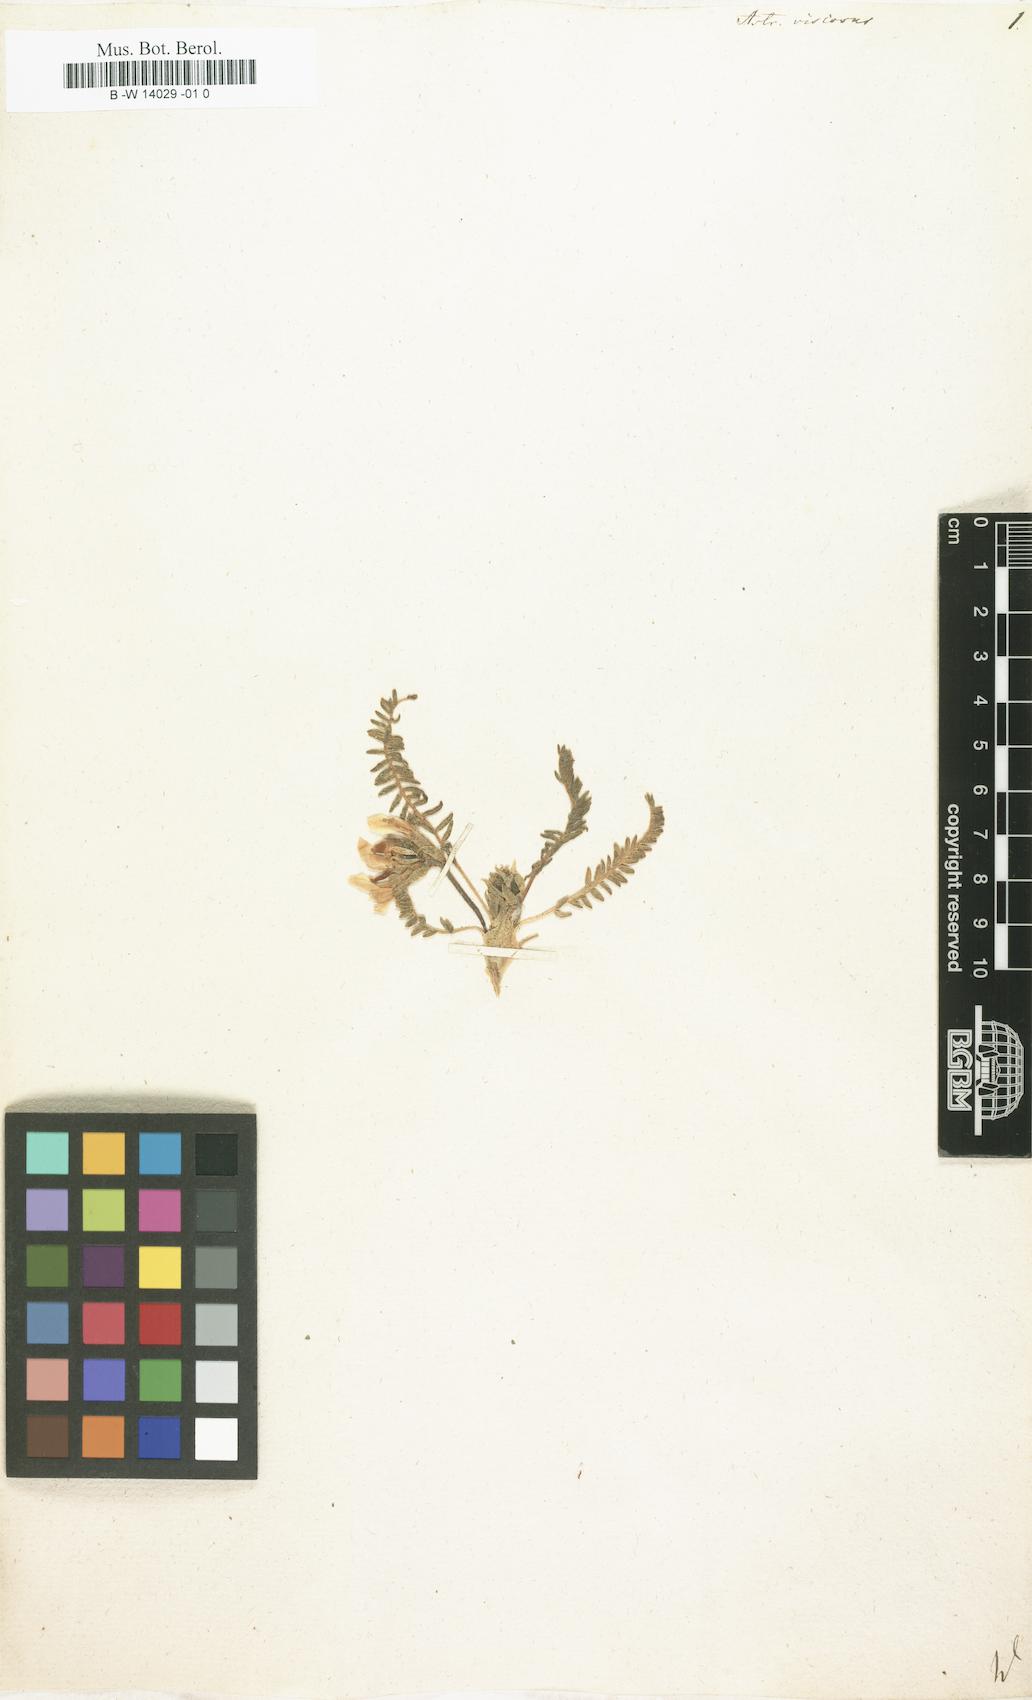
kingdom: Plantae
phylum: Tracheophyta
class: Magnoliopsida
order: Fabales
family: Fabaceae
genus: Oxytropis
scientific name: Oxytropis fetida
